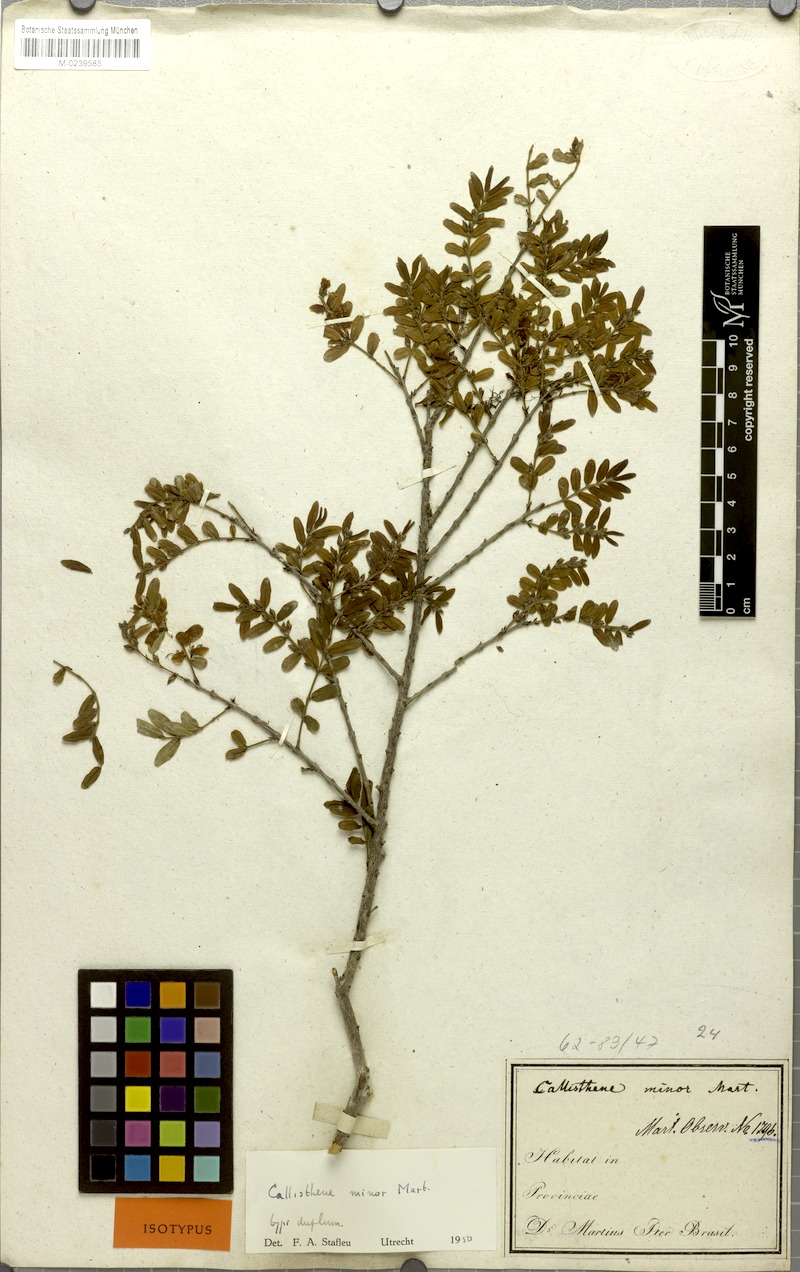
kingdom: Plantae
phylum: Tracheophyta
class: Magnoliopsida
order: Myrtales
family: Vochysiaceae
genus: Callisthene
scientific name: Callisthene minor
